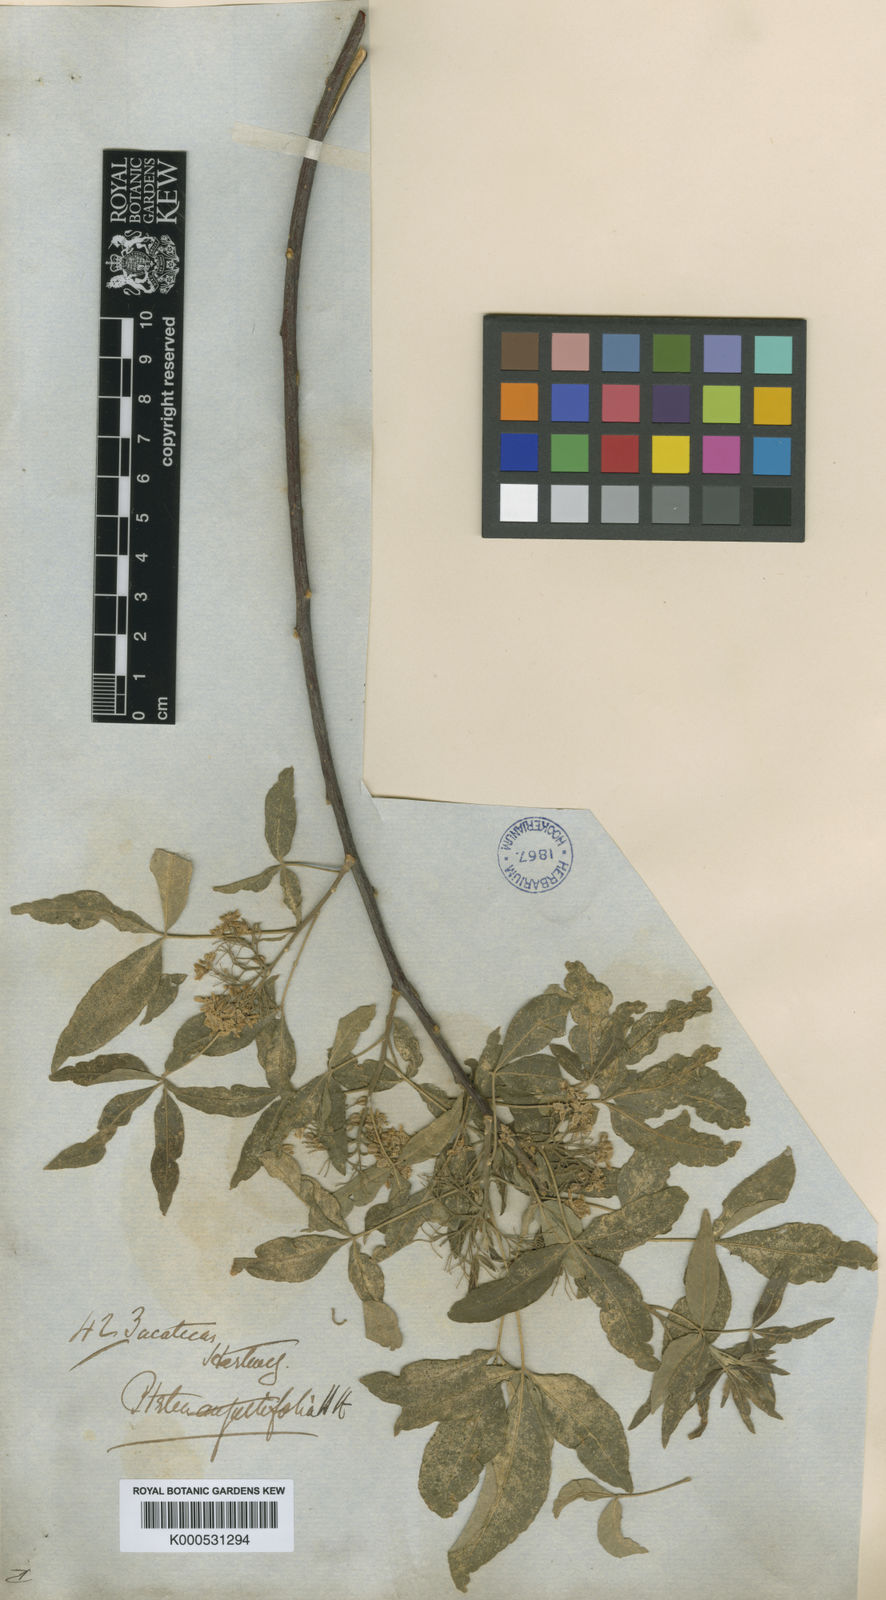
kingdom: Plantae
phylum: Tracheophyta
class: Magnoliopsida
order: Sapindales
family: Rutaceae
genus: Ptelea
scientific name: Ptelea trifoliata
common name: Common hop-tree
